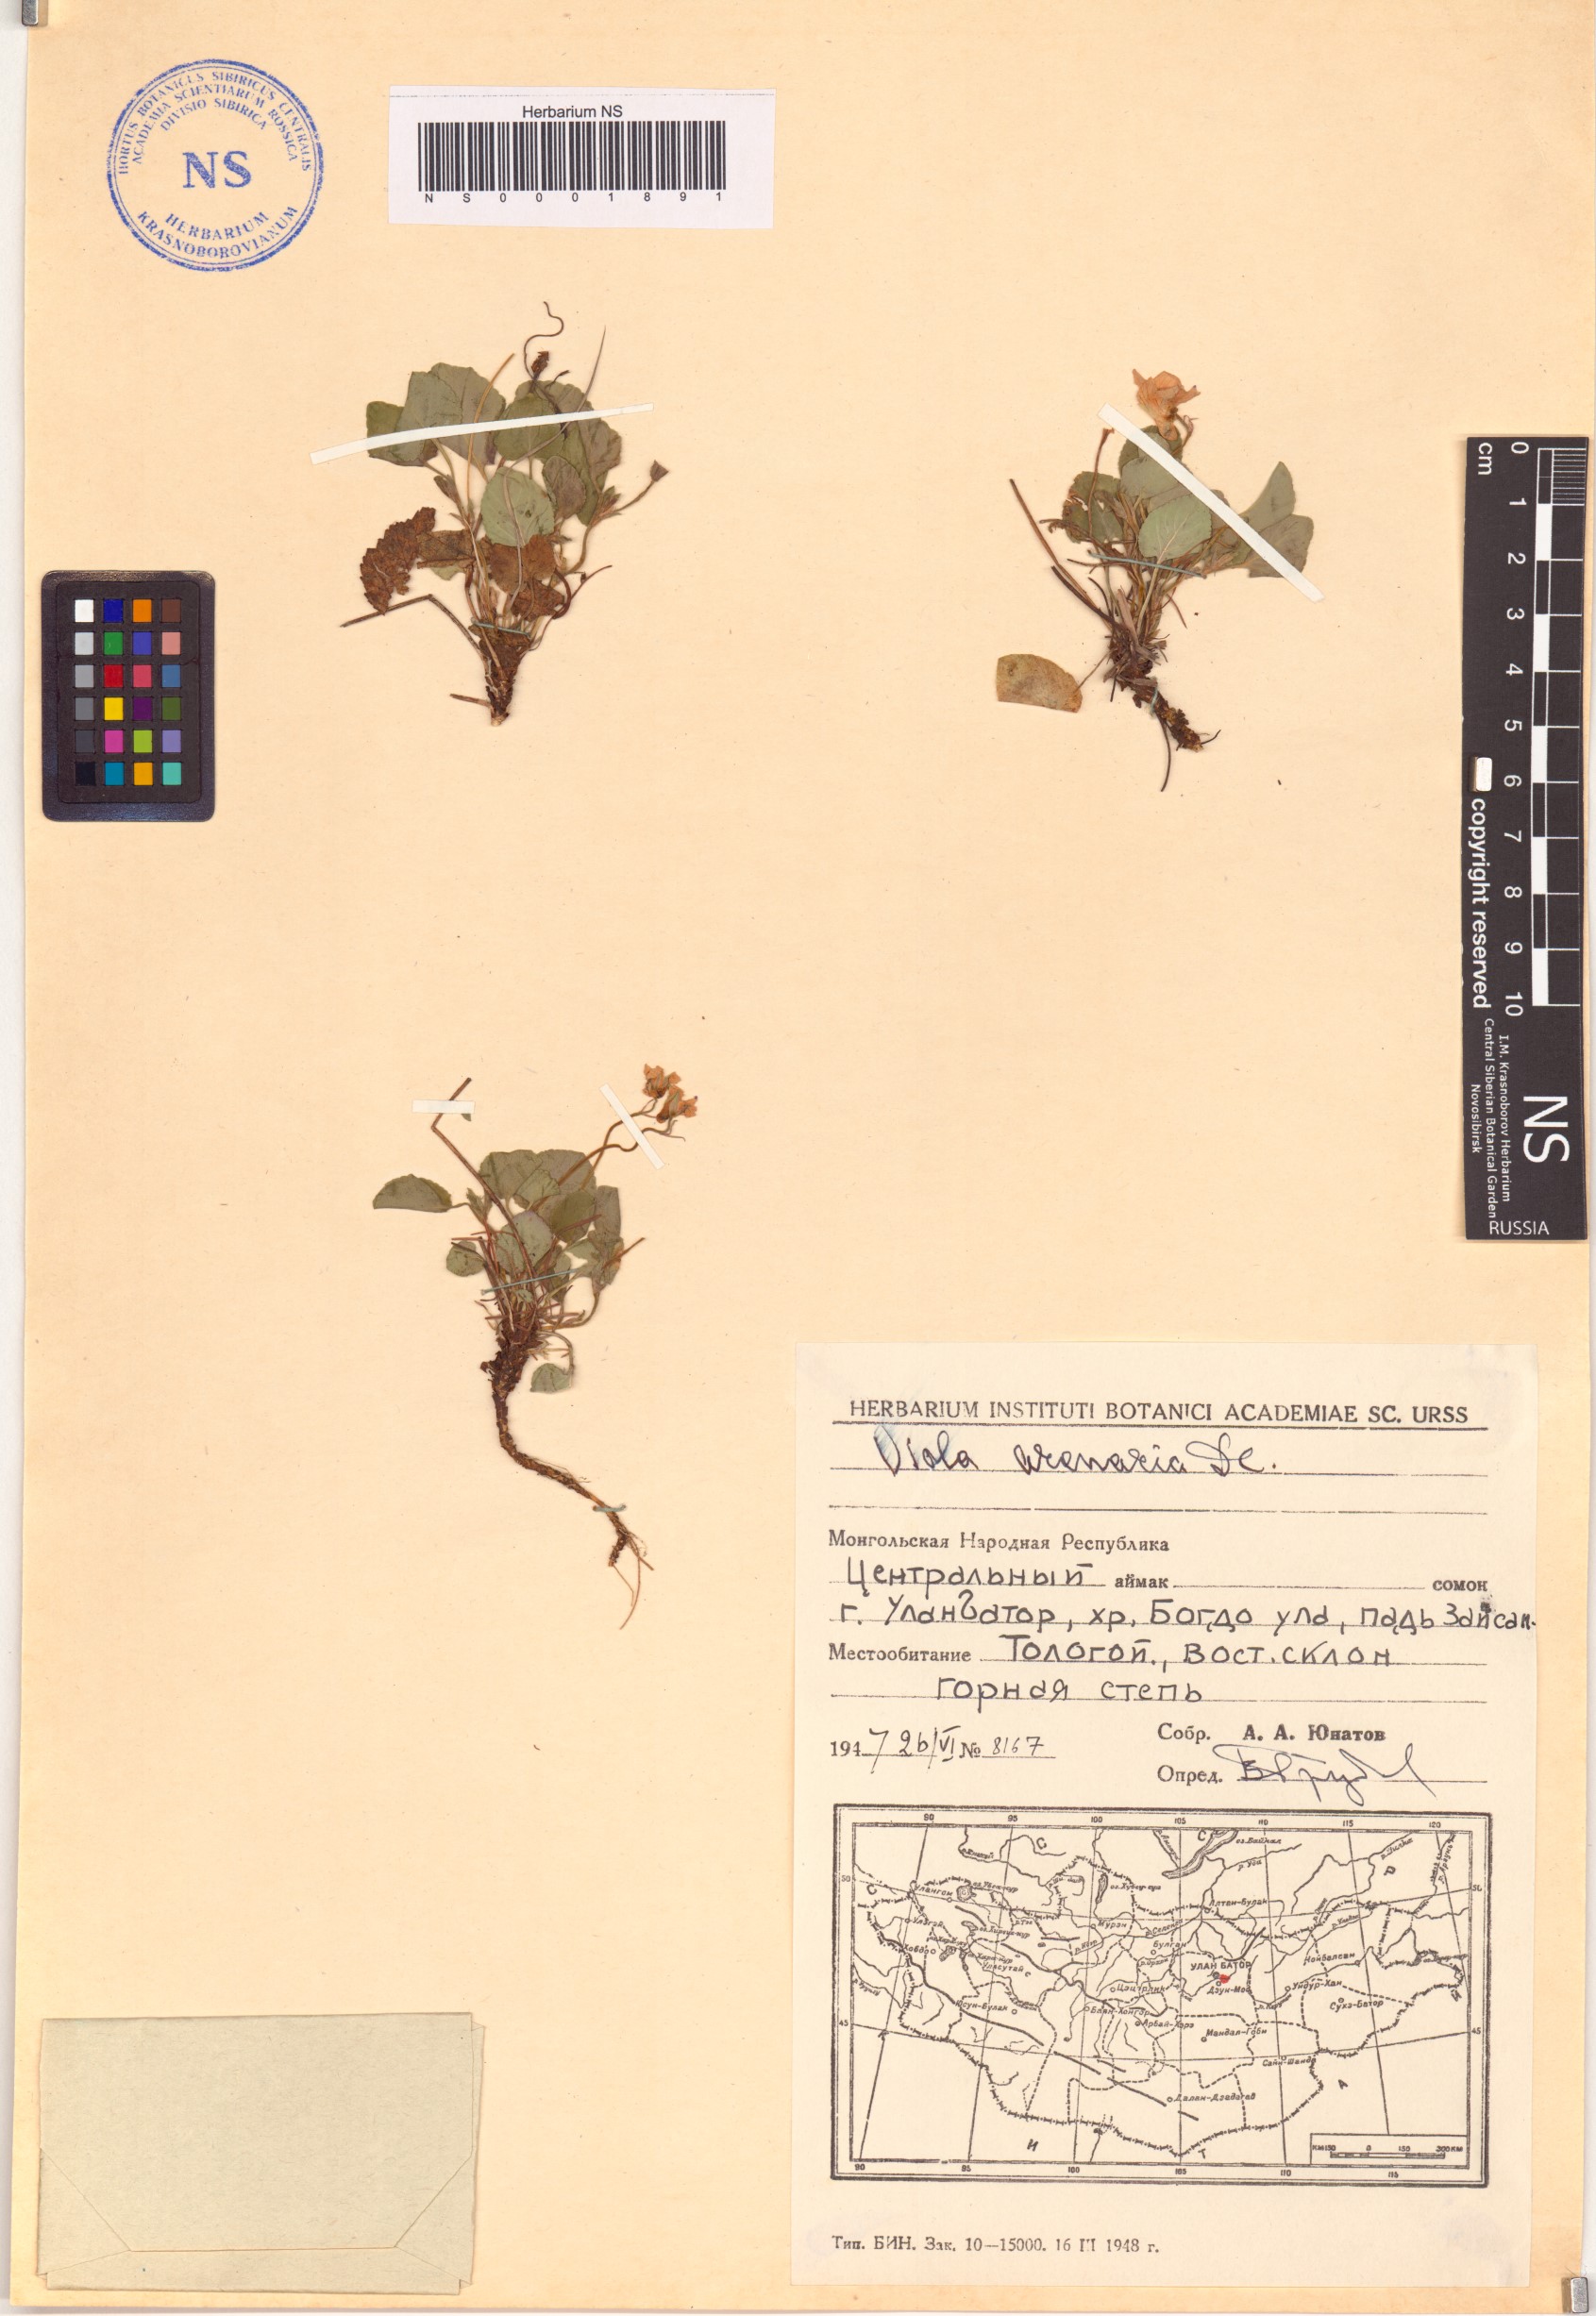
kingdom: Plantae
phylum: Tracheophyta
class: Magnoliopsida
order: Malpighiales
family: Violaceae
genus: Viola
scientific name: Viola rupestris
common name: Teesdale violet
